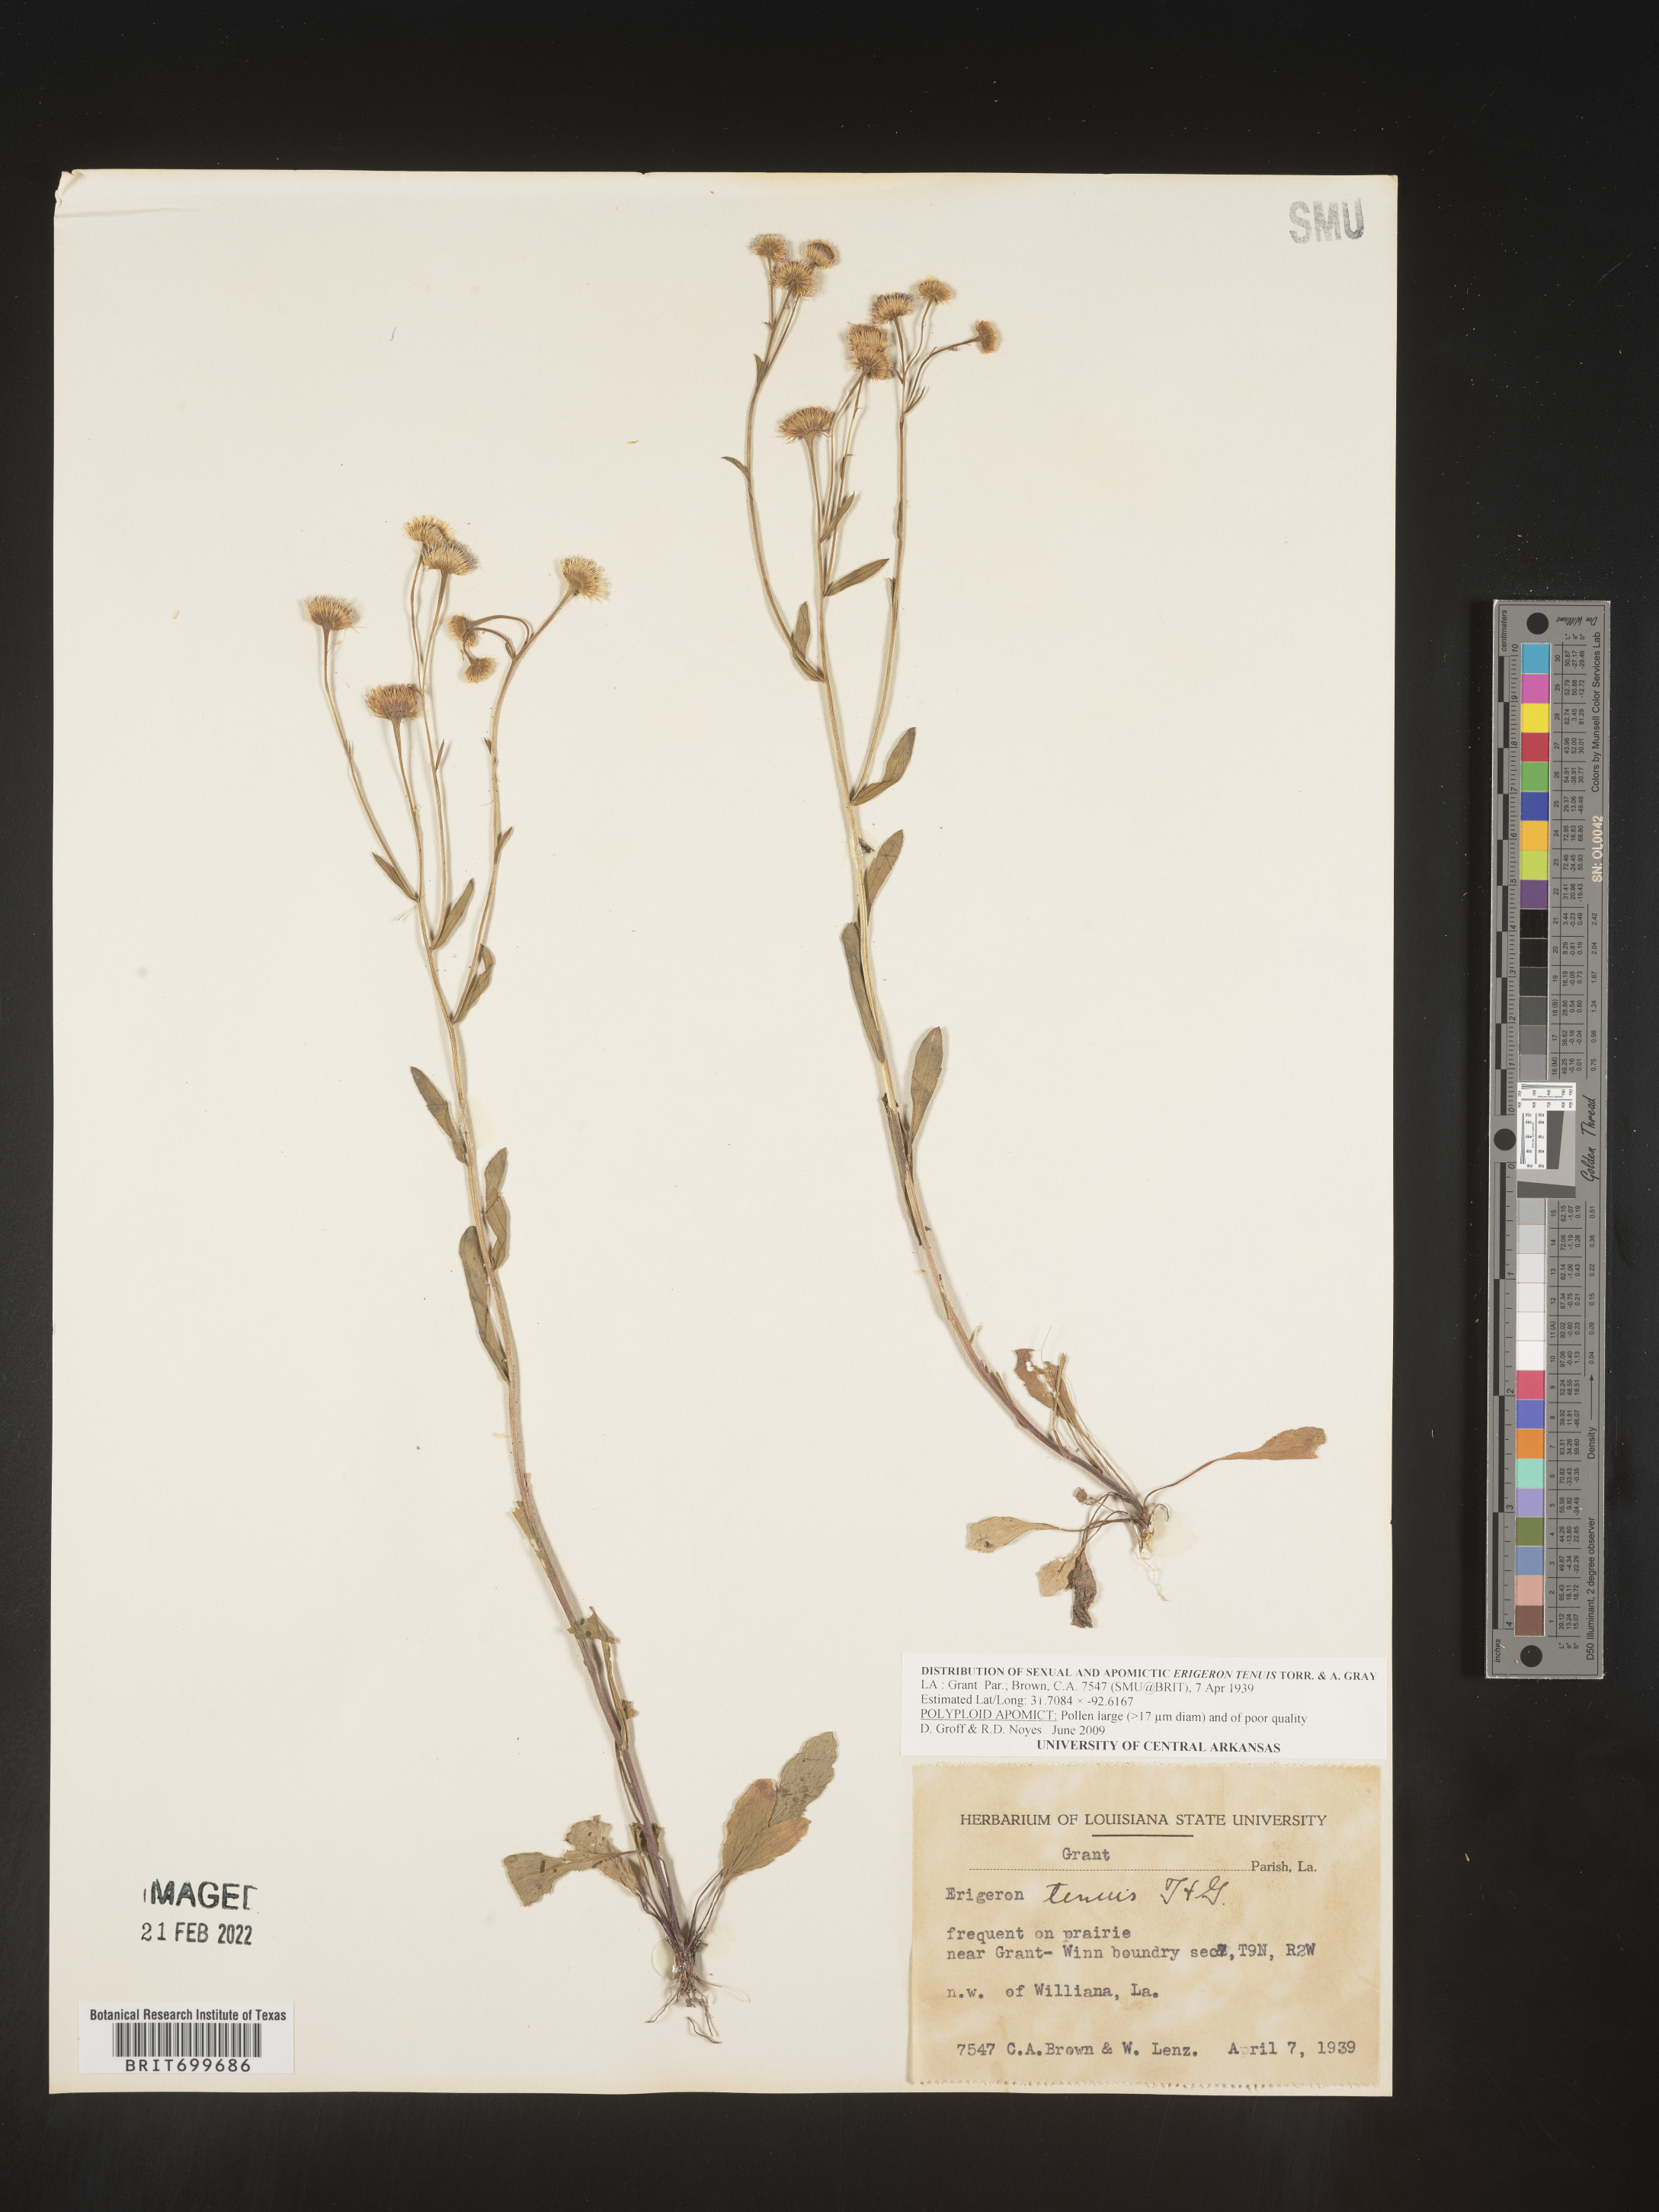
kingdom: Plantae
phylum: Tracheophyta
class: Magnoliopsida
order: Asterales
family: Asteraceae
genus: Erigeron
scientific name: Erigeron tenuis
